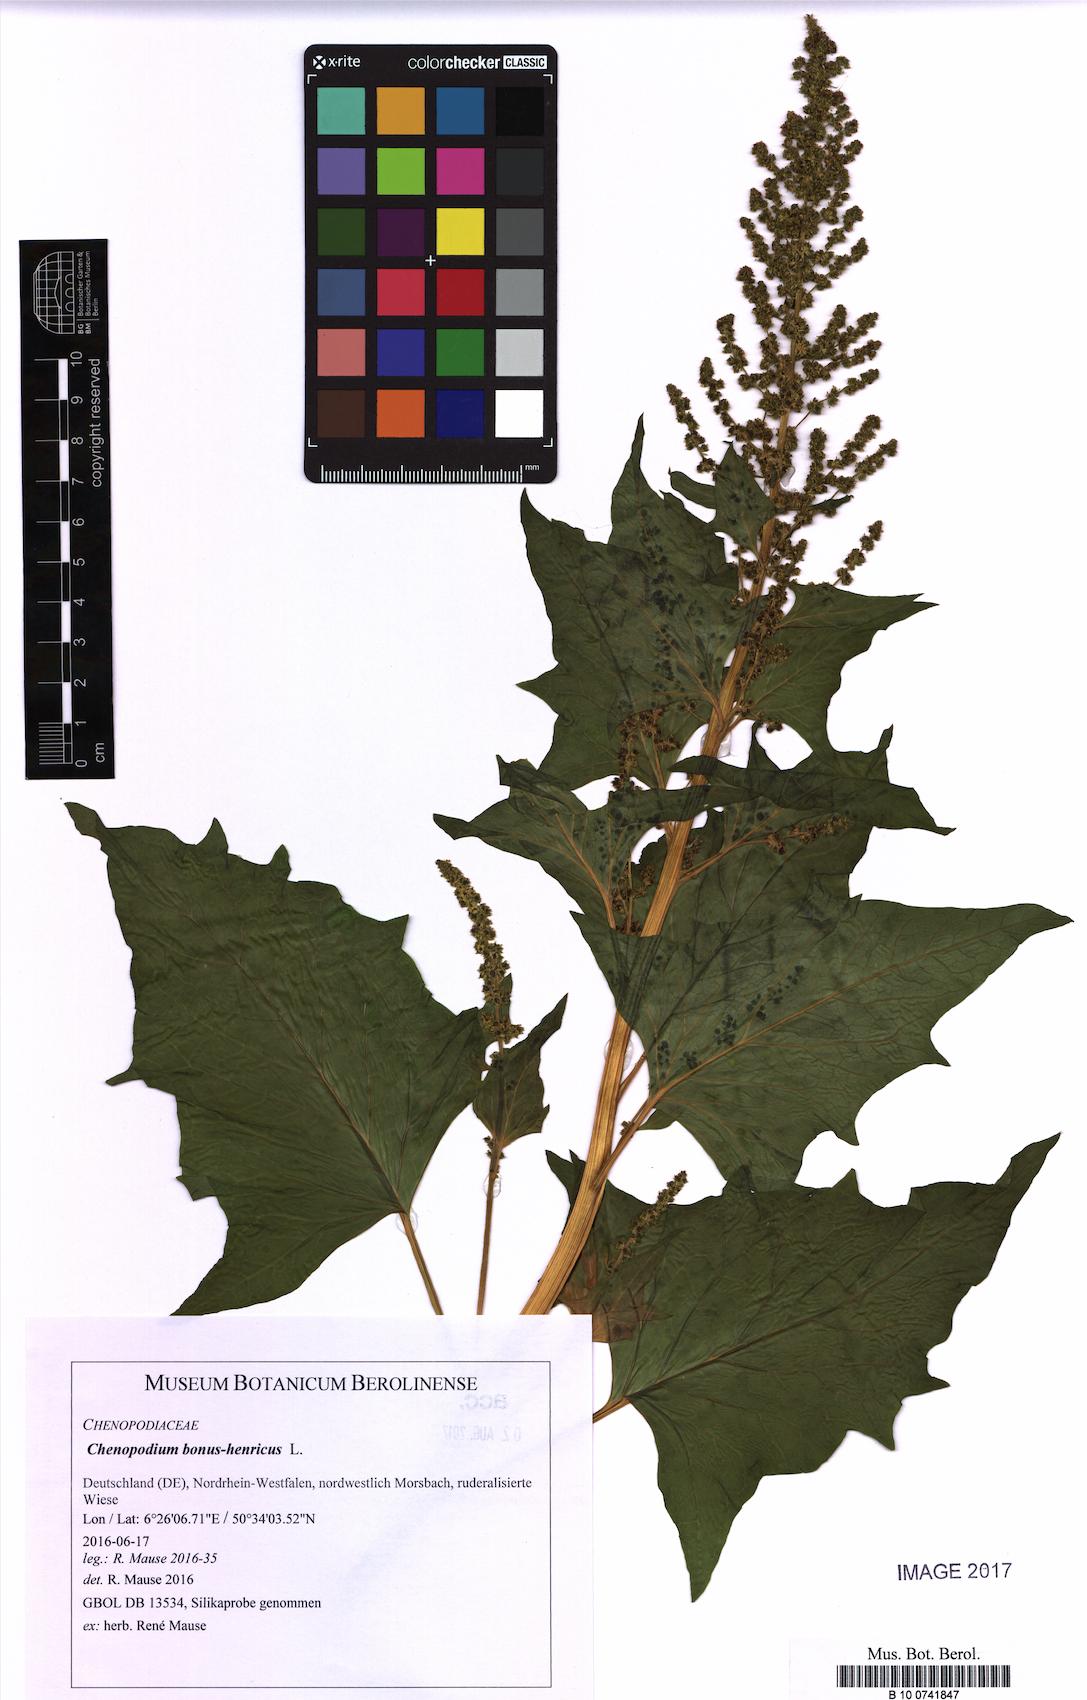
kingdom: Plantae
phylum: Tracheophyta
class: Magnoliopsida
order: Caryophyllales
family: Amaranthaceae
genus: Blitum
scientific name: Blitum bonus-henricus
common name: Good king henry
